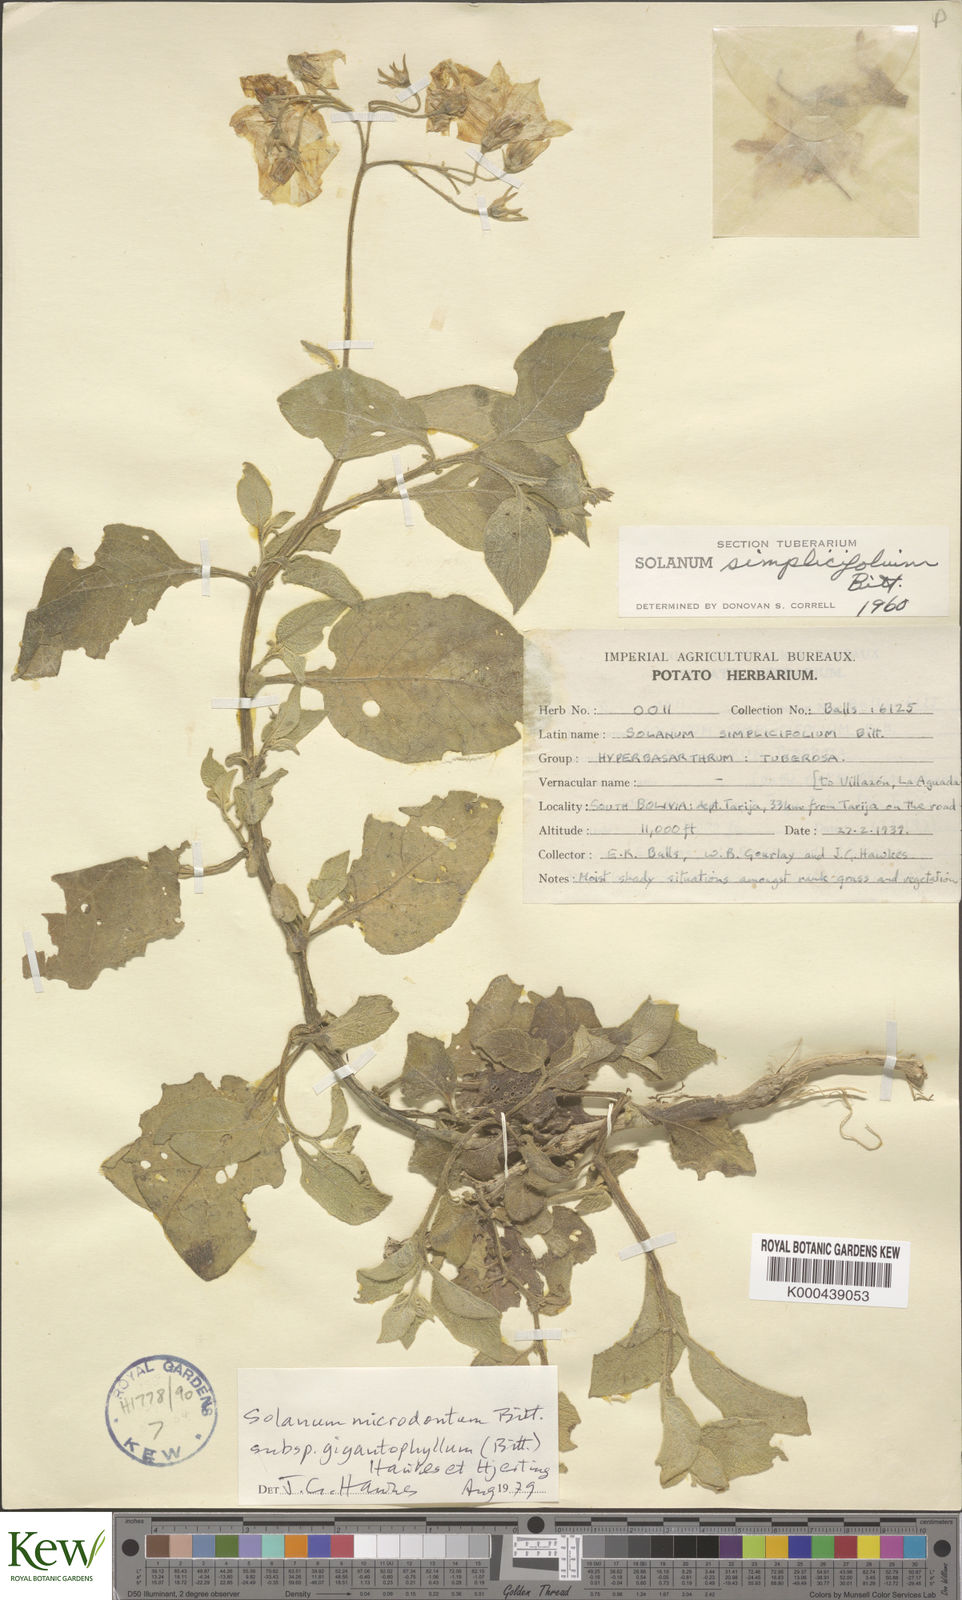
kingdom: Plantae
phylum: Tracheophyta
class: Magnoliopsida
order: Solanales
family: Solanaceae
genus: Solanum
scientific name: Solanum microdontum
